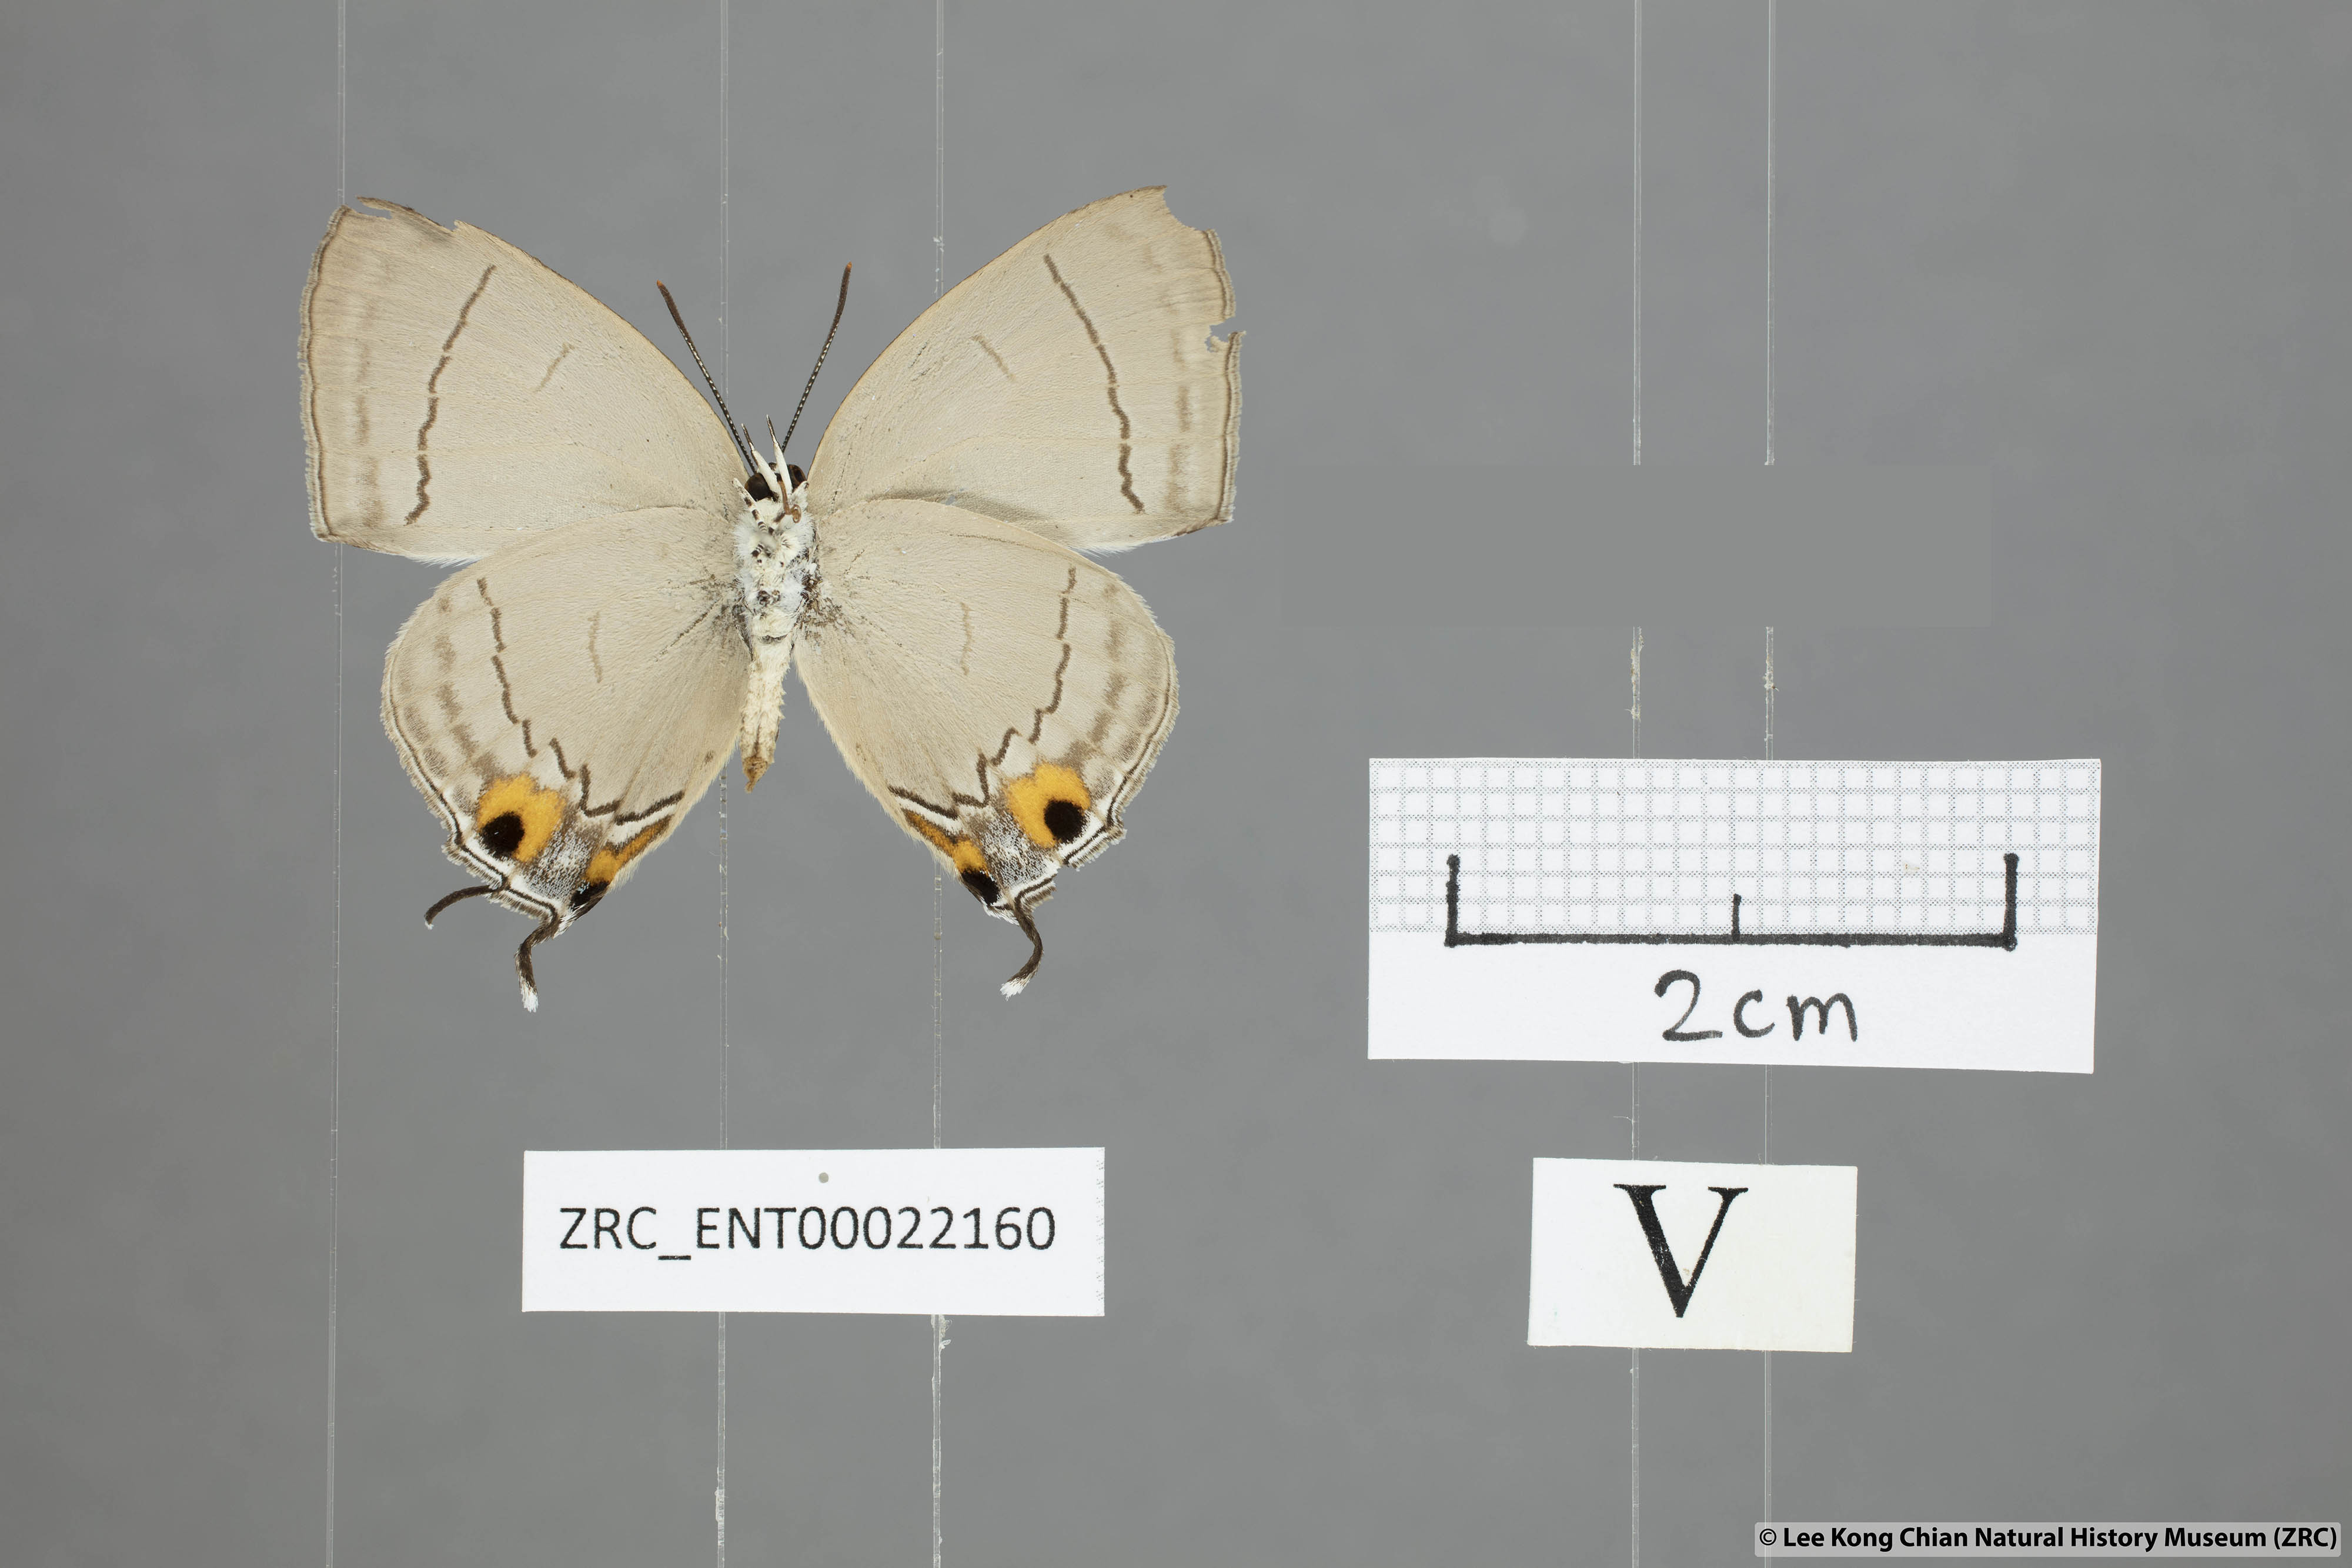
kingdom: Animalia
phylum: Arthropoda
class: Insecta
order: Lepidoptera
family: Lycaenidae
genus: Tajuria
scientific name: Tajuria jalajala
